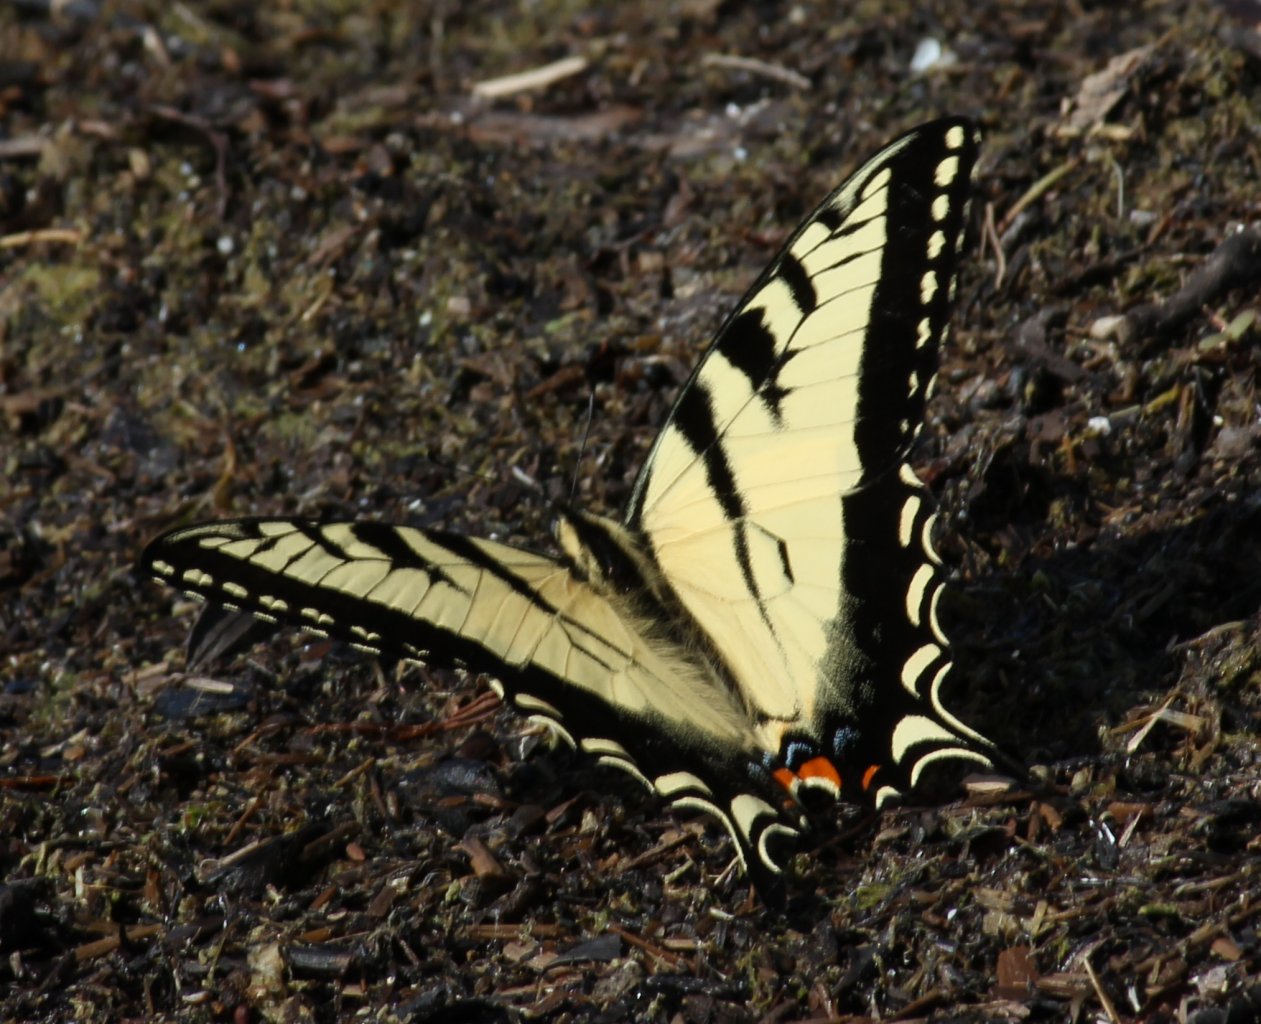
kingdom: Animalia
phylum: Arthropoda
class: Insecta
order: Lepidoptera
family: Papilionidae
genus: Pterourus
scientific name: Pterourus glaucus
